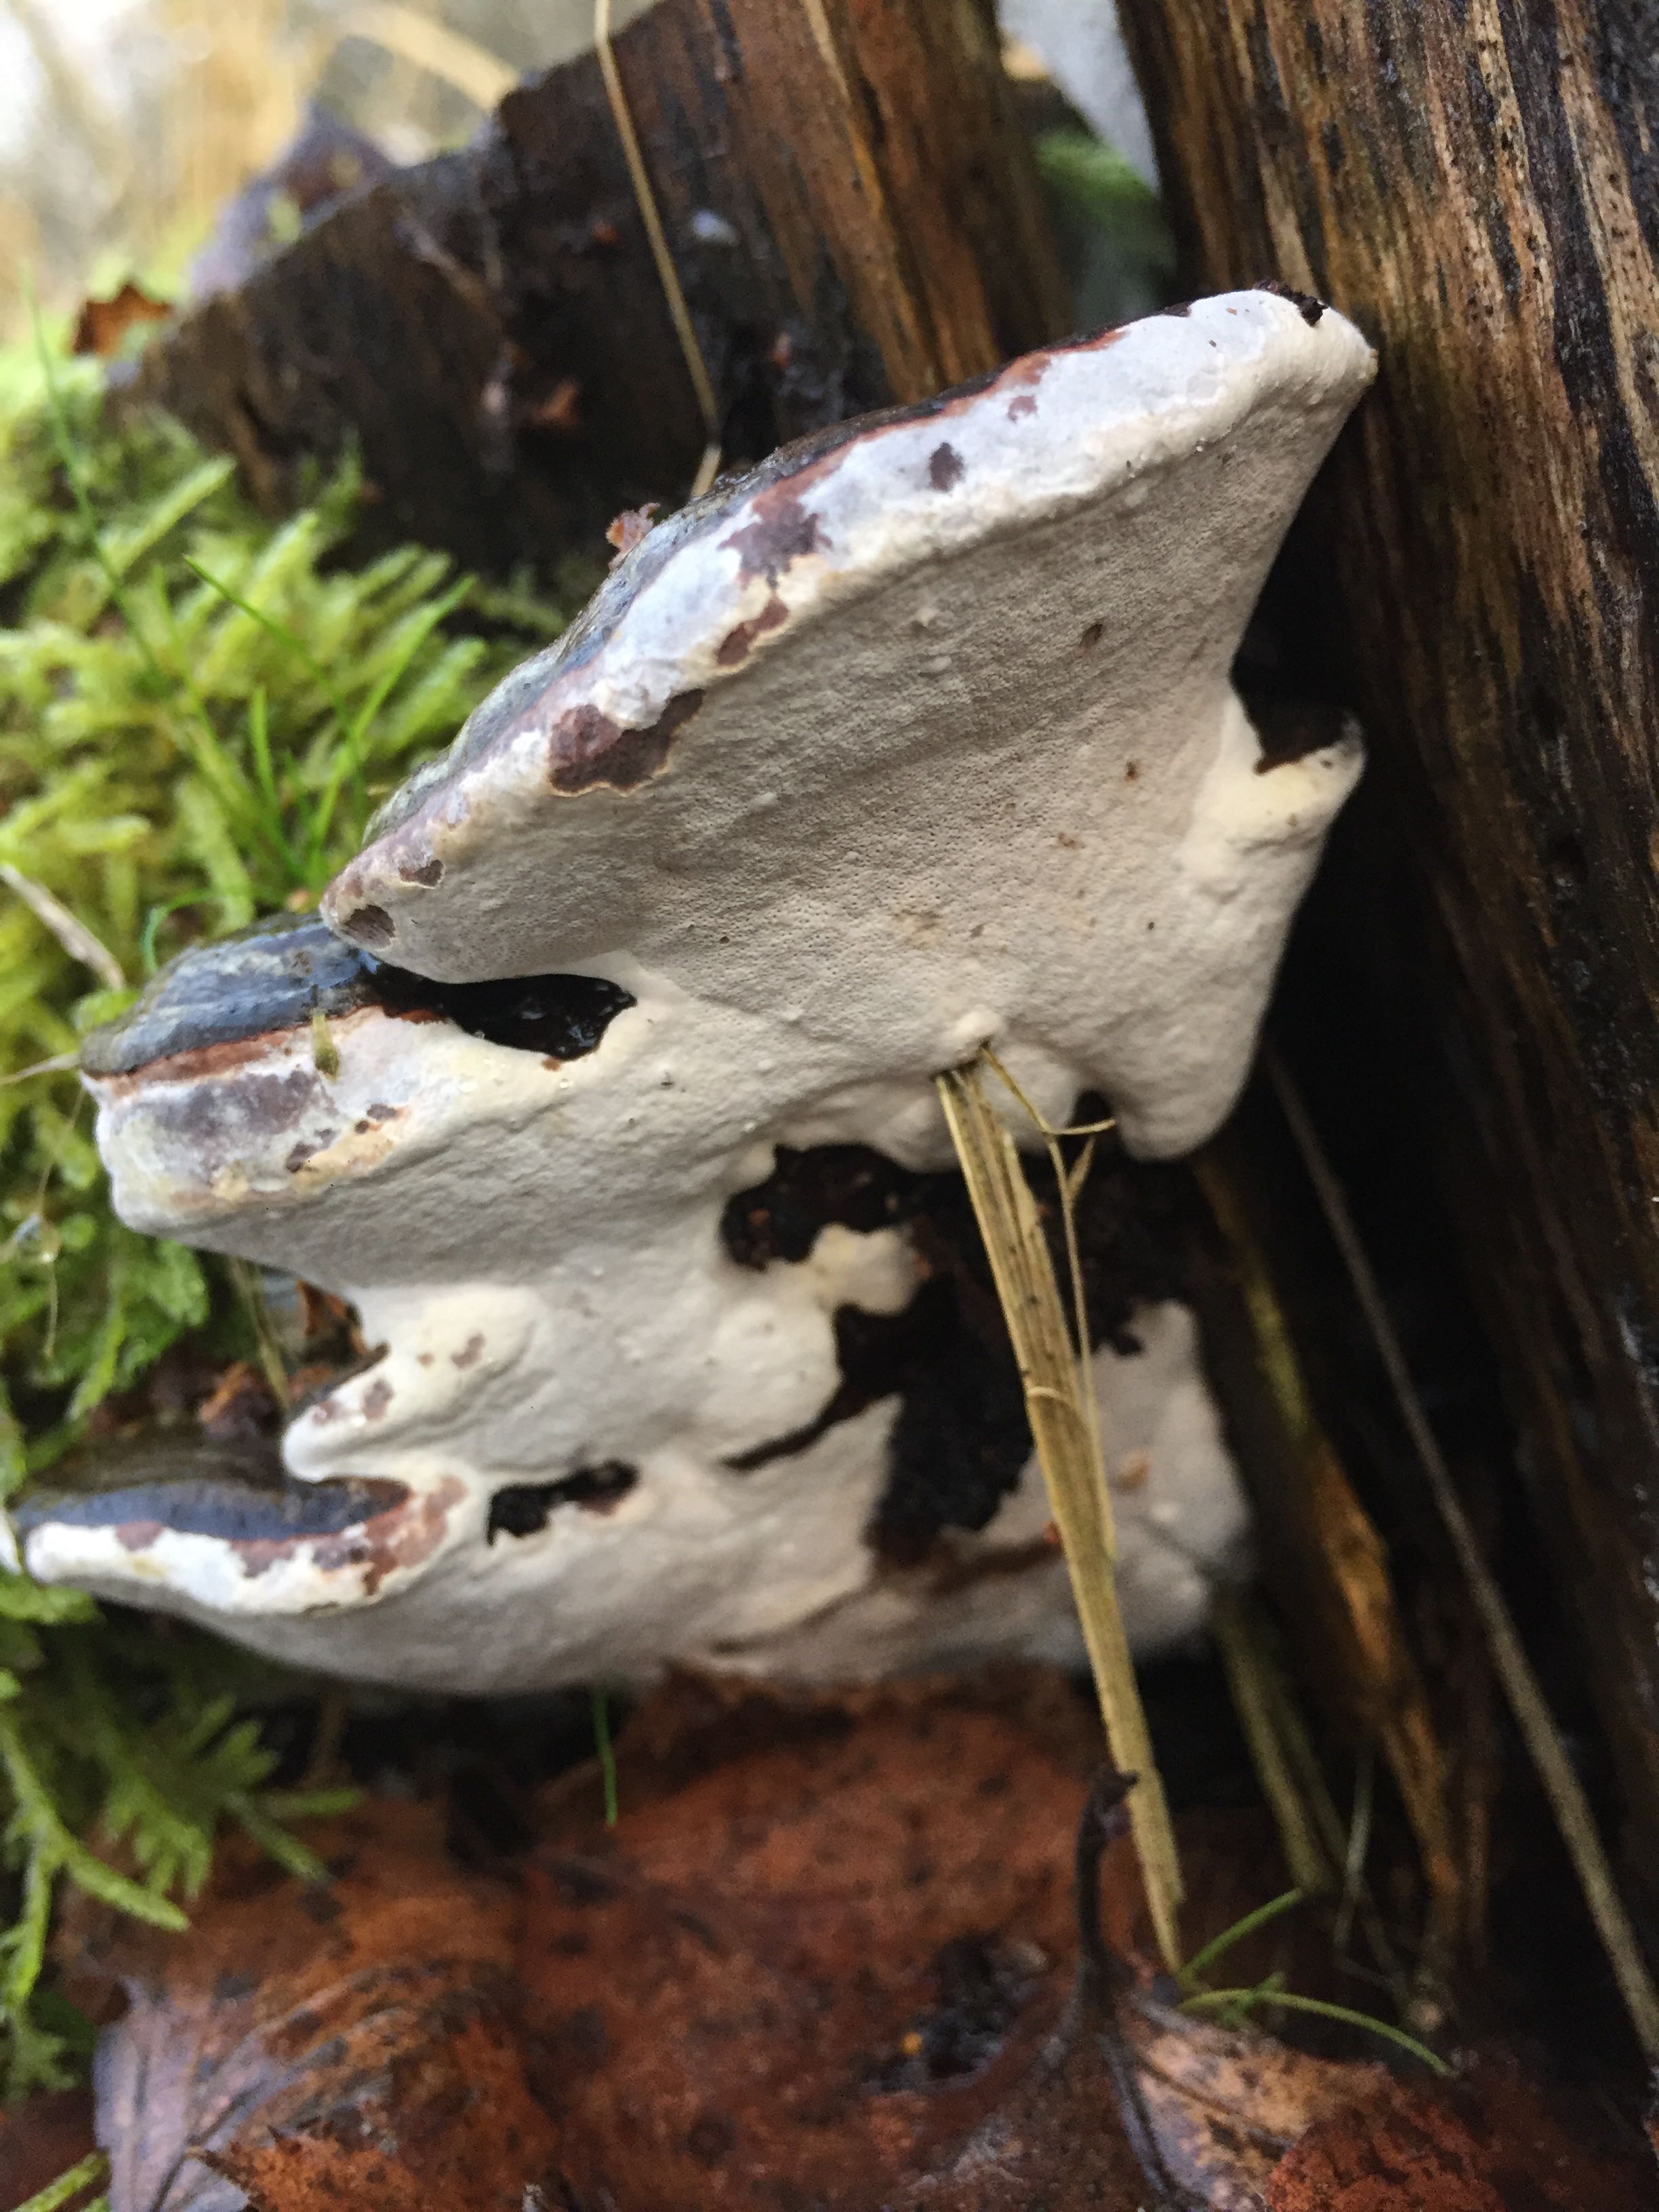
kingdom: Fungi
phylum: Basidiomycota
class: Agaricomycetes
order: Polyporales
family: Polyporaceae
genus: Ganoderma
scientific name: Ganoderma applanatum
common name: flad lakporesvamp
